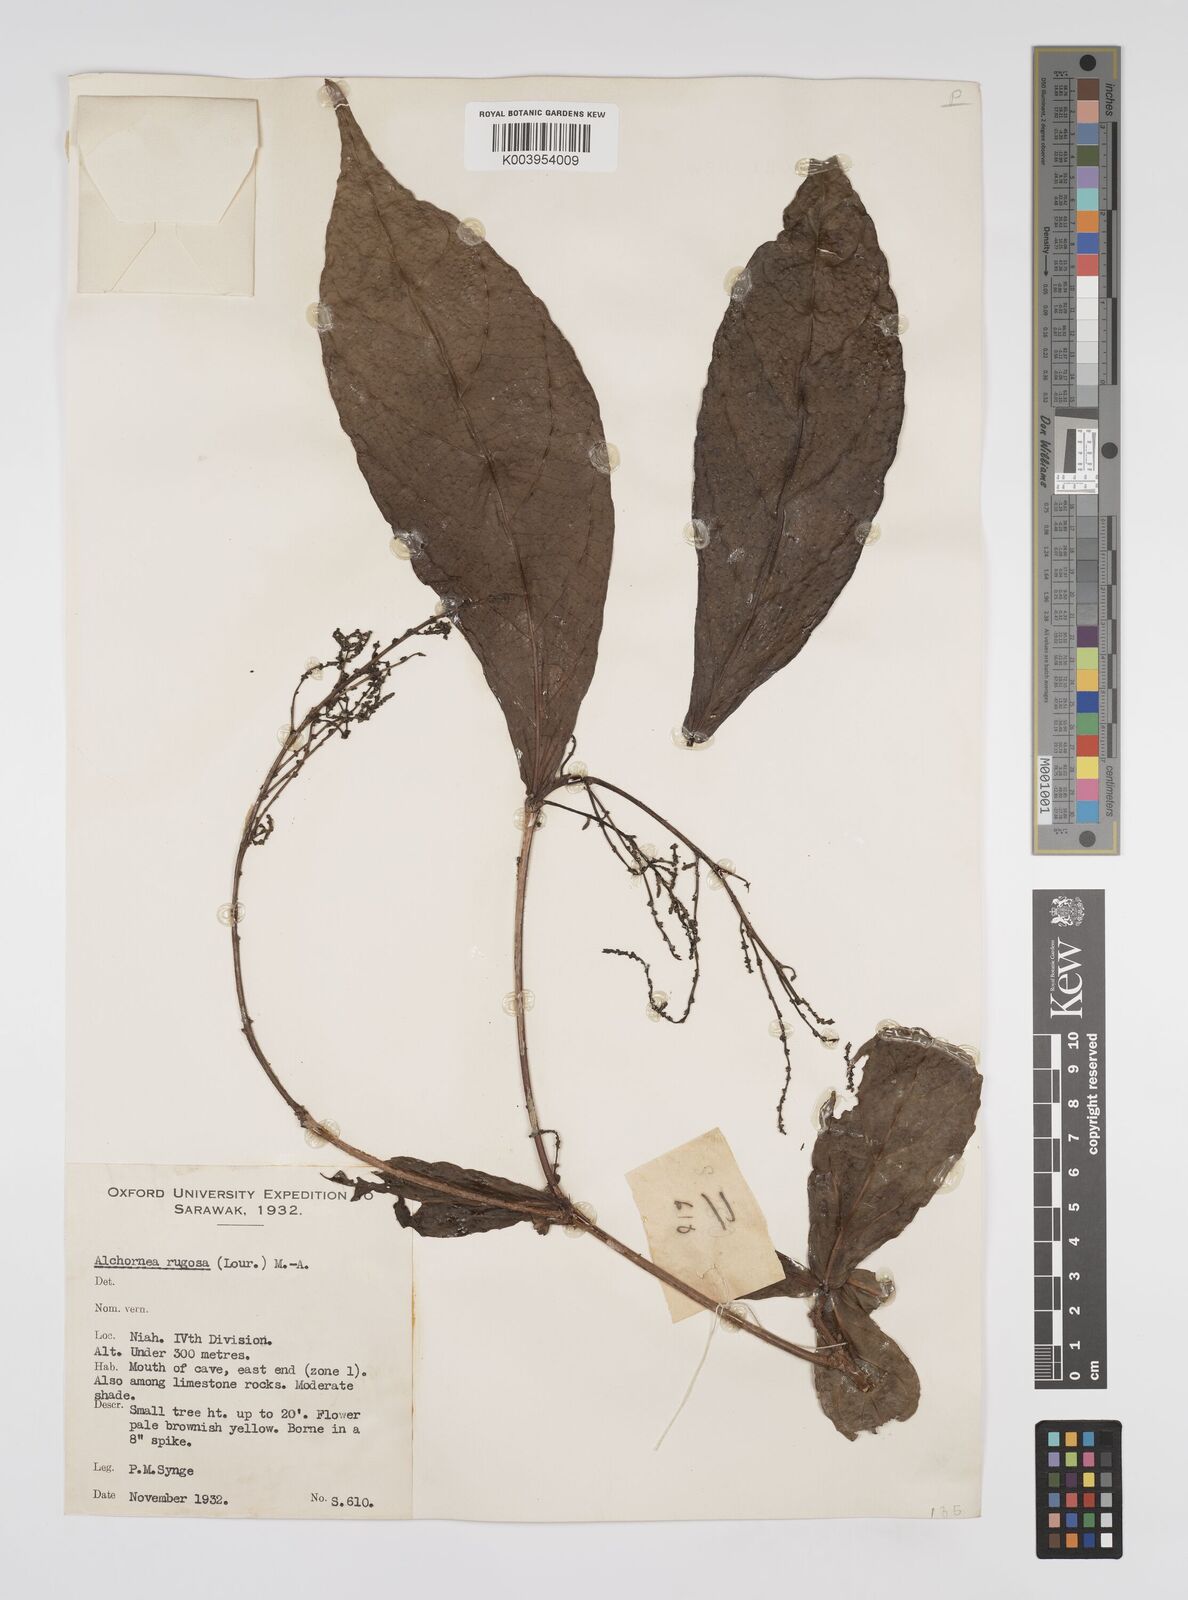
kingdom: Plantae
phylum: Tracheophyta
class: Magnoliopsida
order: Malpighiales
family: Euphorbiaceae
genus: Alchornea
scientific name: Alchornea rugosa
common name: Alchorntree
